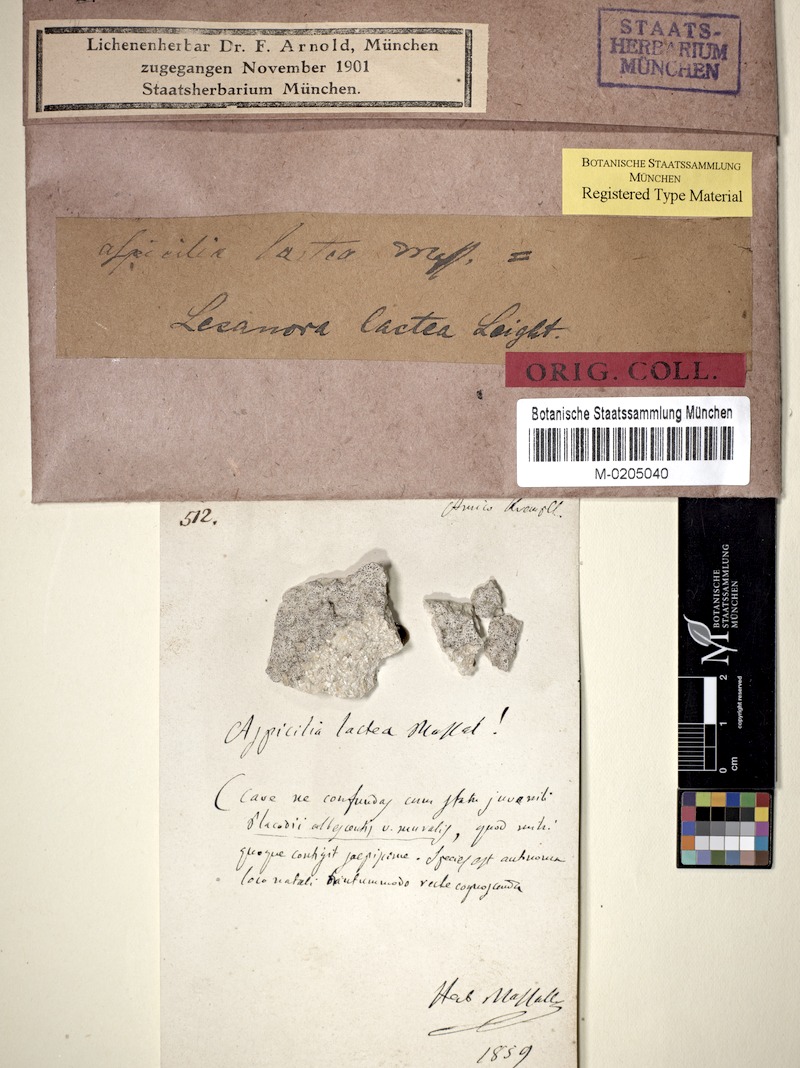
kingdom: Fungi
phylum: Ascomycota
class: Lecanoromycetes
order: Lecanorales
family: Lecanoraceae
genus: Lecanora
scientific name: Lecanora lactea
